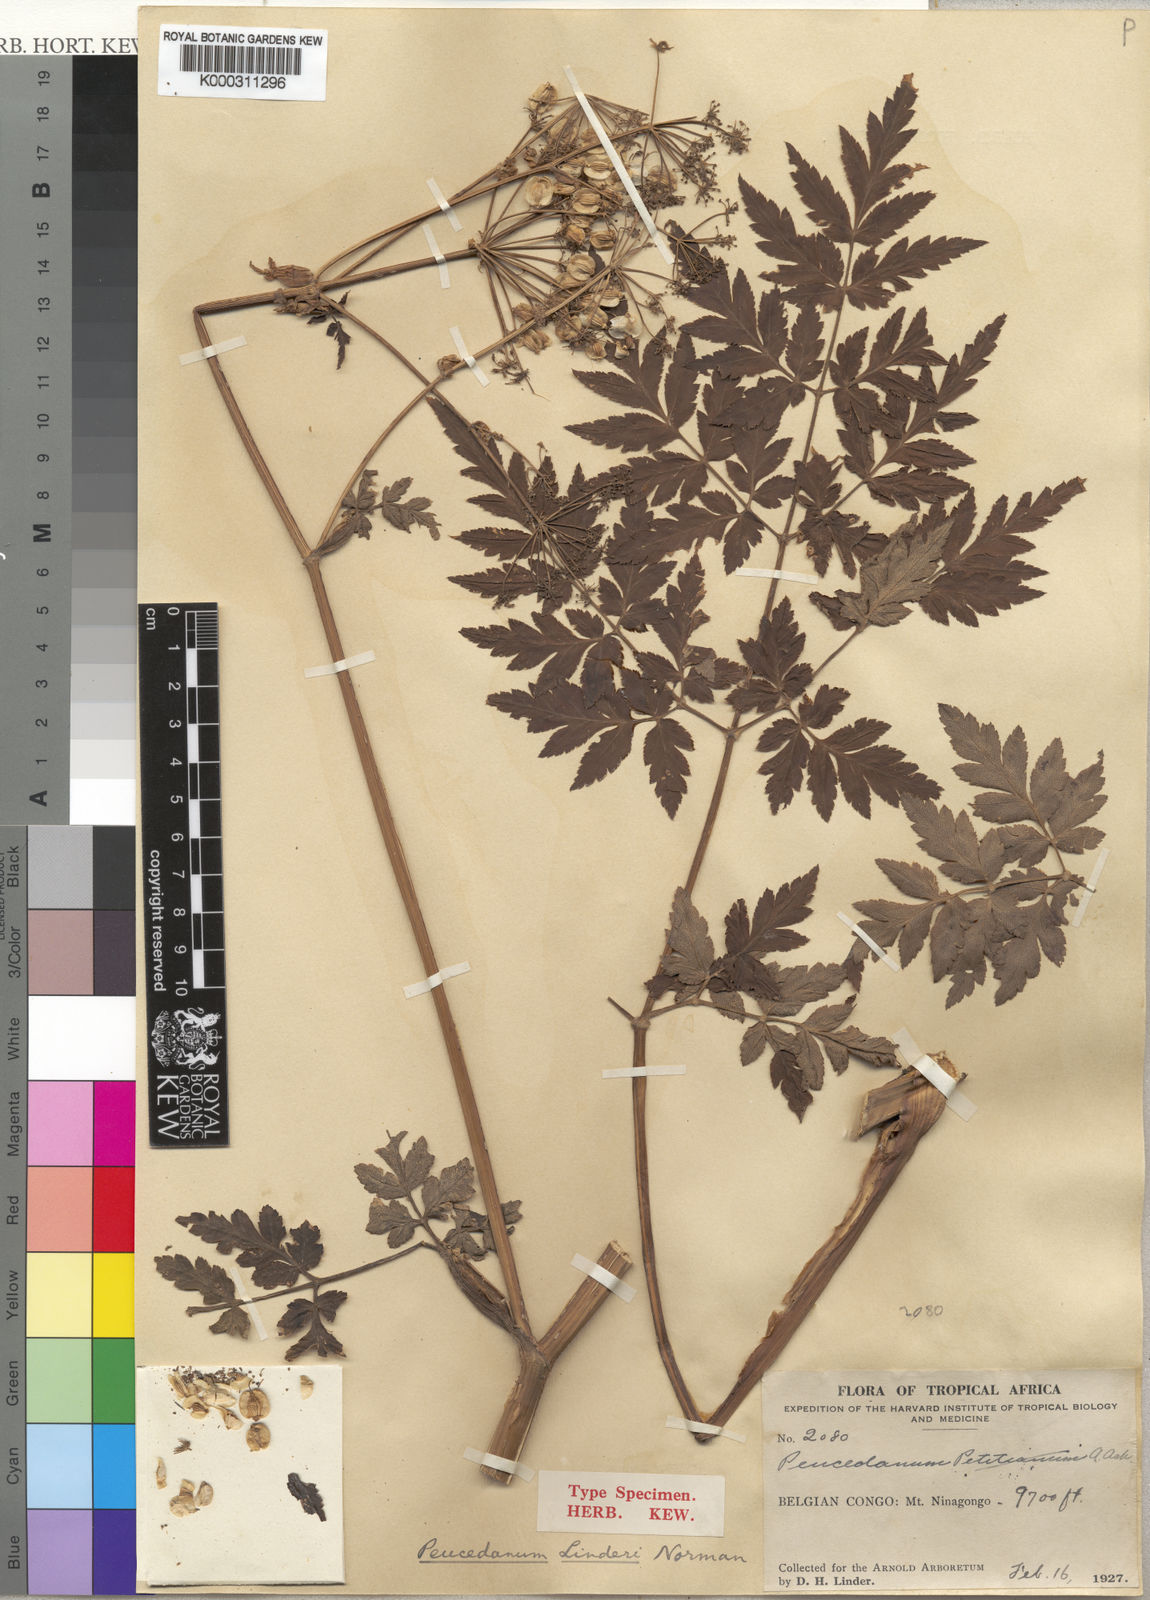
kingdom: Plantae
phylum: Tracheophyta
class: Magnoliopsida
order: Apiales
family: Apiaceae
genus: Afroligusticum
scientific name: Afroligusticum linderi
